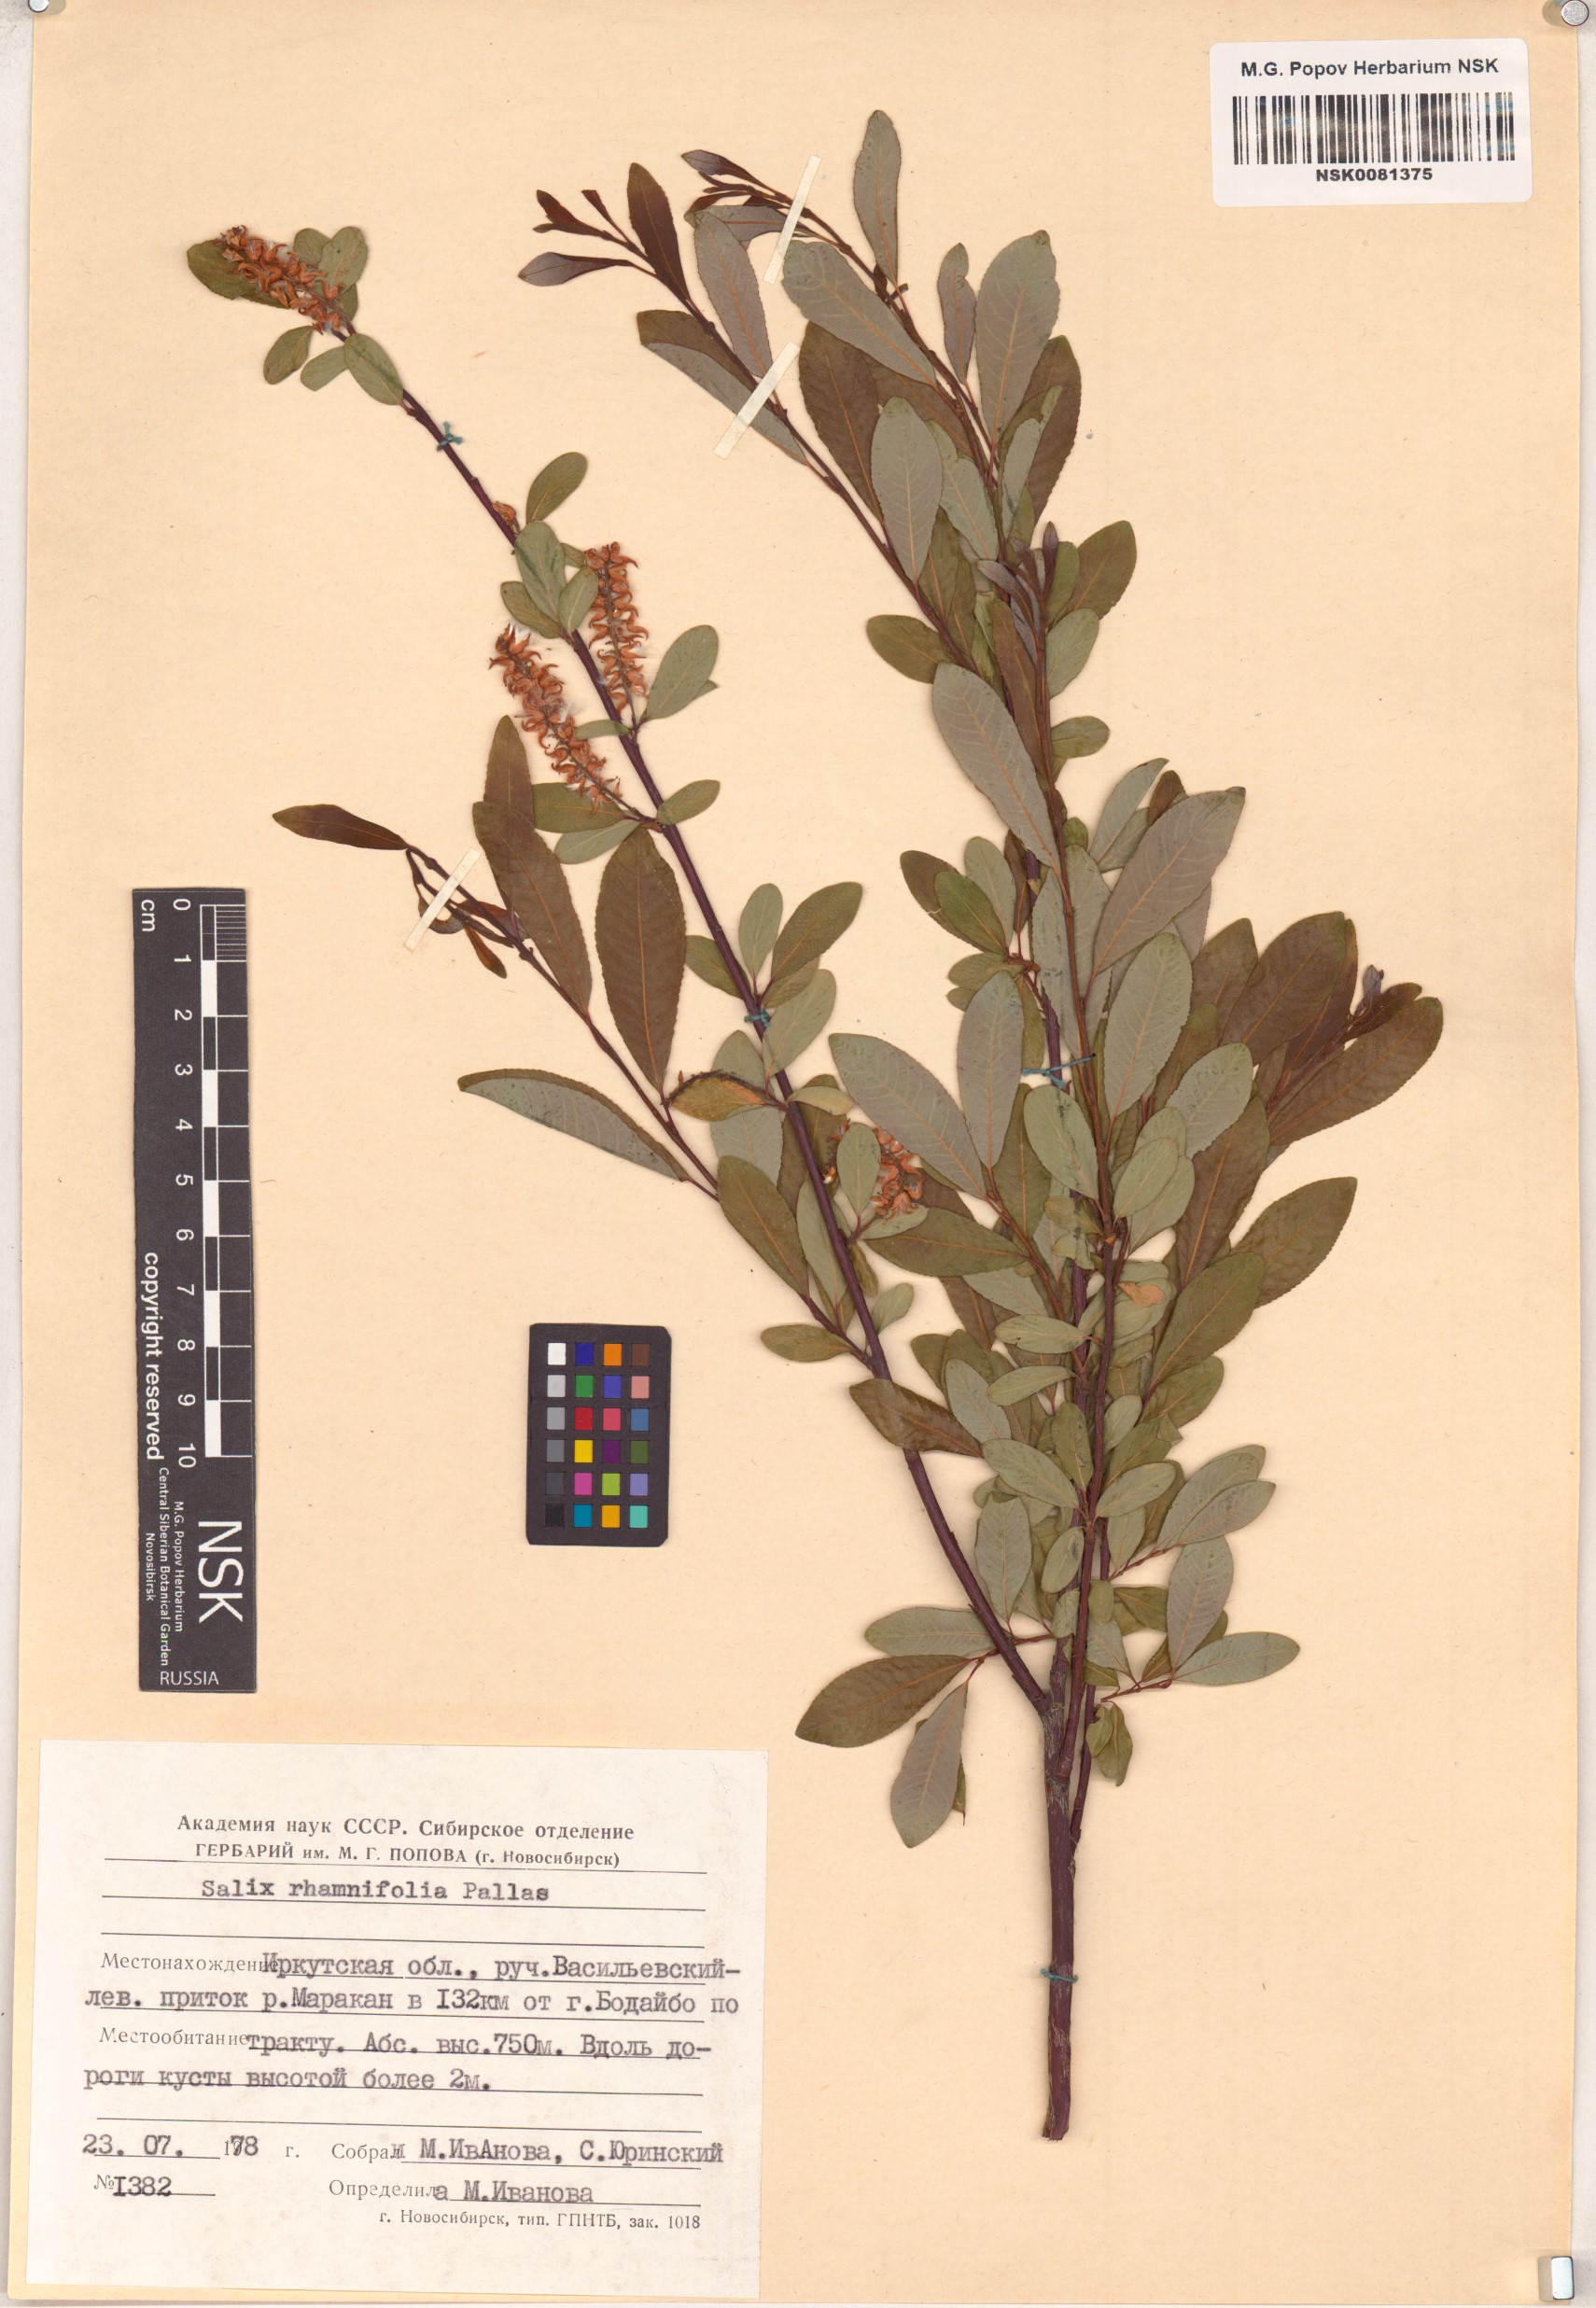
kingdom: Plantae
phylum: Tracheophyta
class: Magnoliopsida
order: Malpighiales
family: Salicaceae
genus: Salix
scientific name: Salix rhamnifolia
